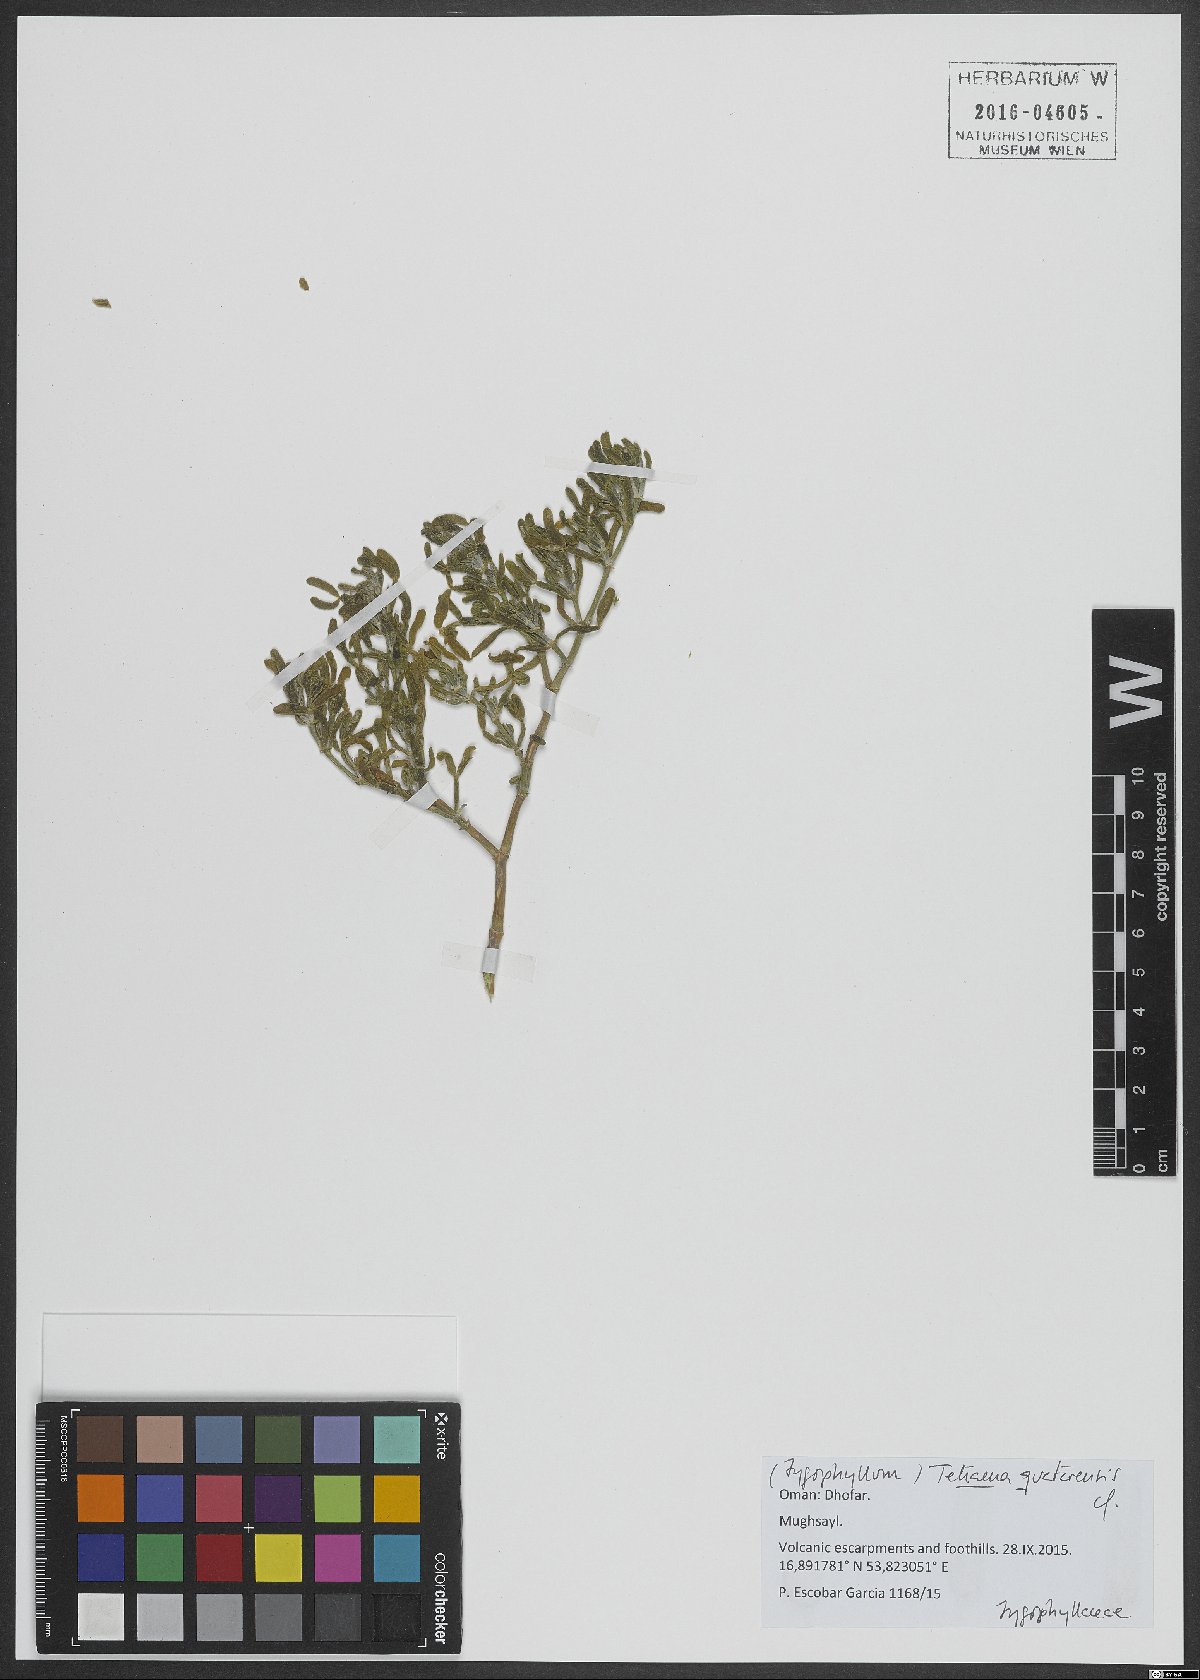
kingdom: Plantae
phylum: Tracheophyta
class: Magnoliopsida
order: Zygophyllales
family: Zygophyllaceae
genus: Tetraena
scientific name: Tetraena hamiensis
